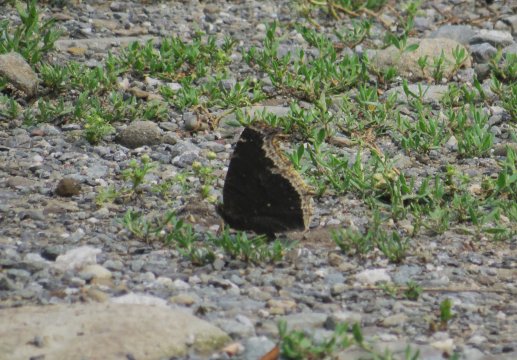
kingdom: Animalia
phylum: Arthropoda
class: Insecta
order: Lepidoptera
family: Nymphalidae
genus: Nymphalis
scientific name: Nymphalis antiopa
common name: Mourning Cloak
